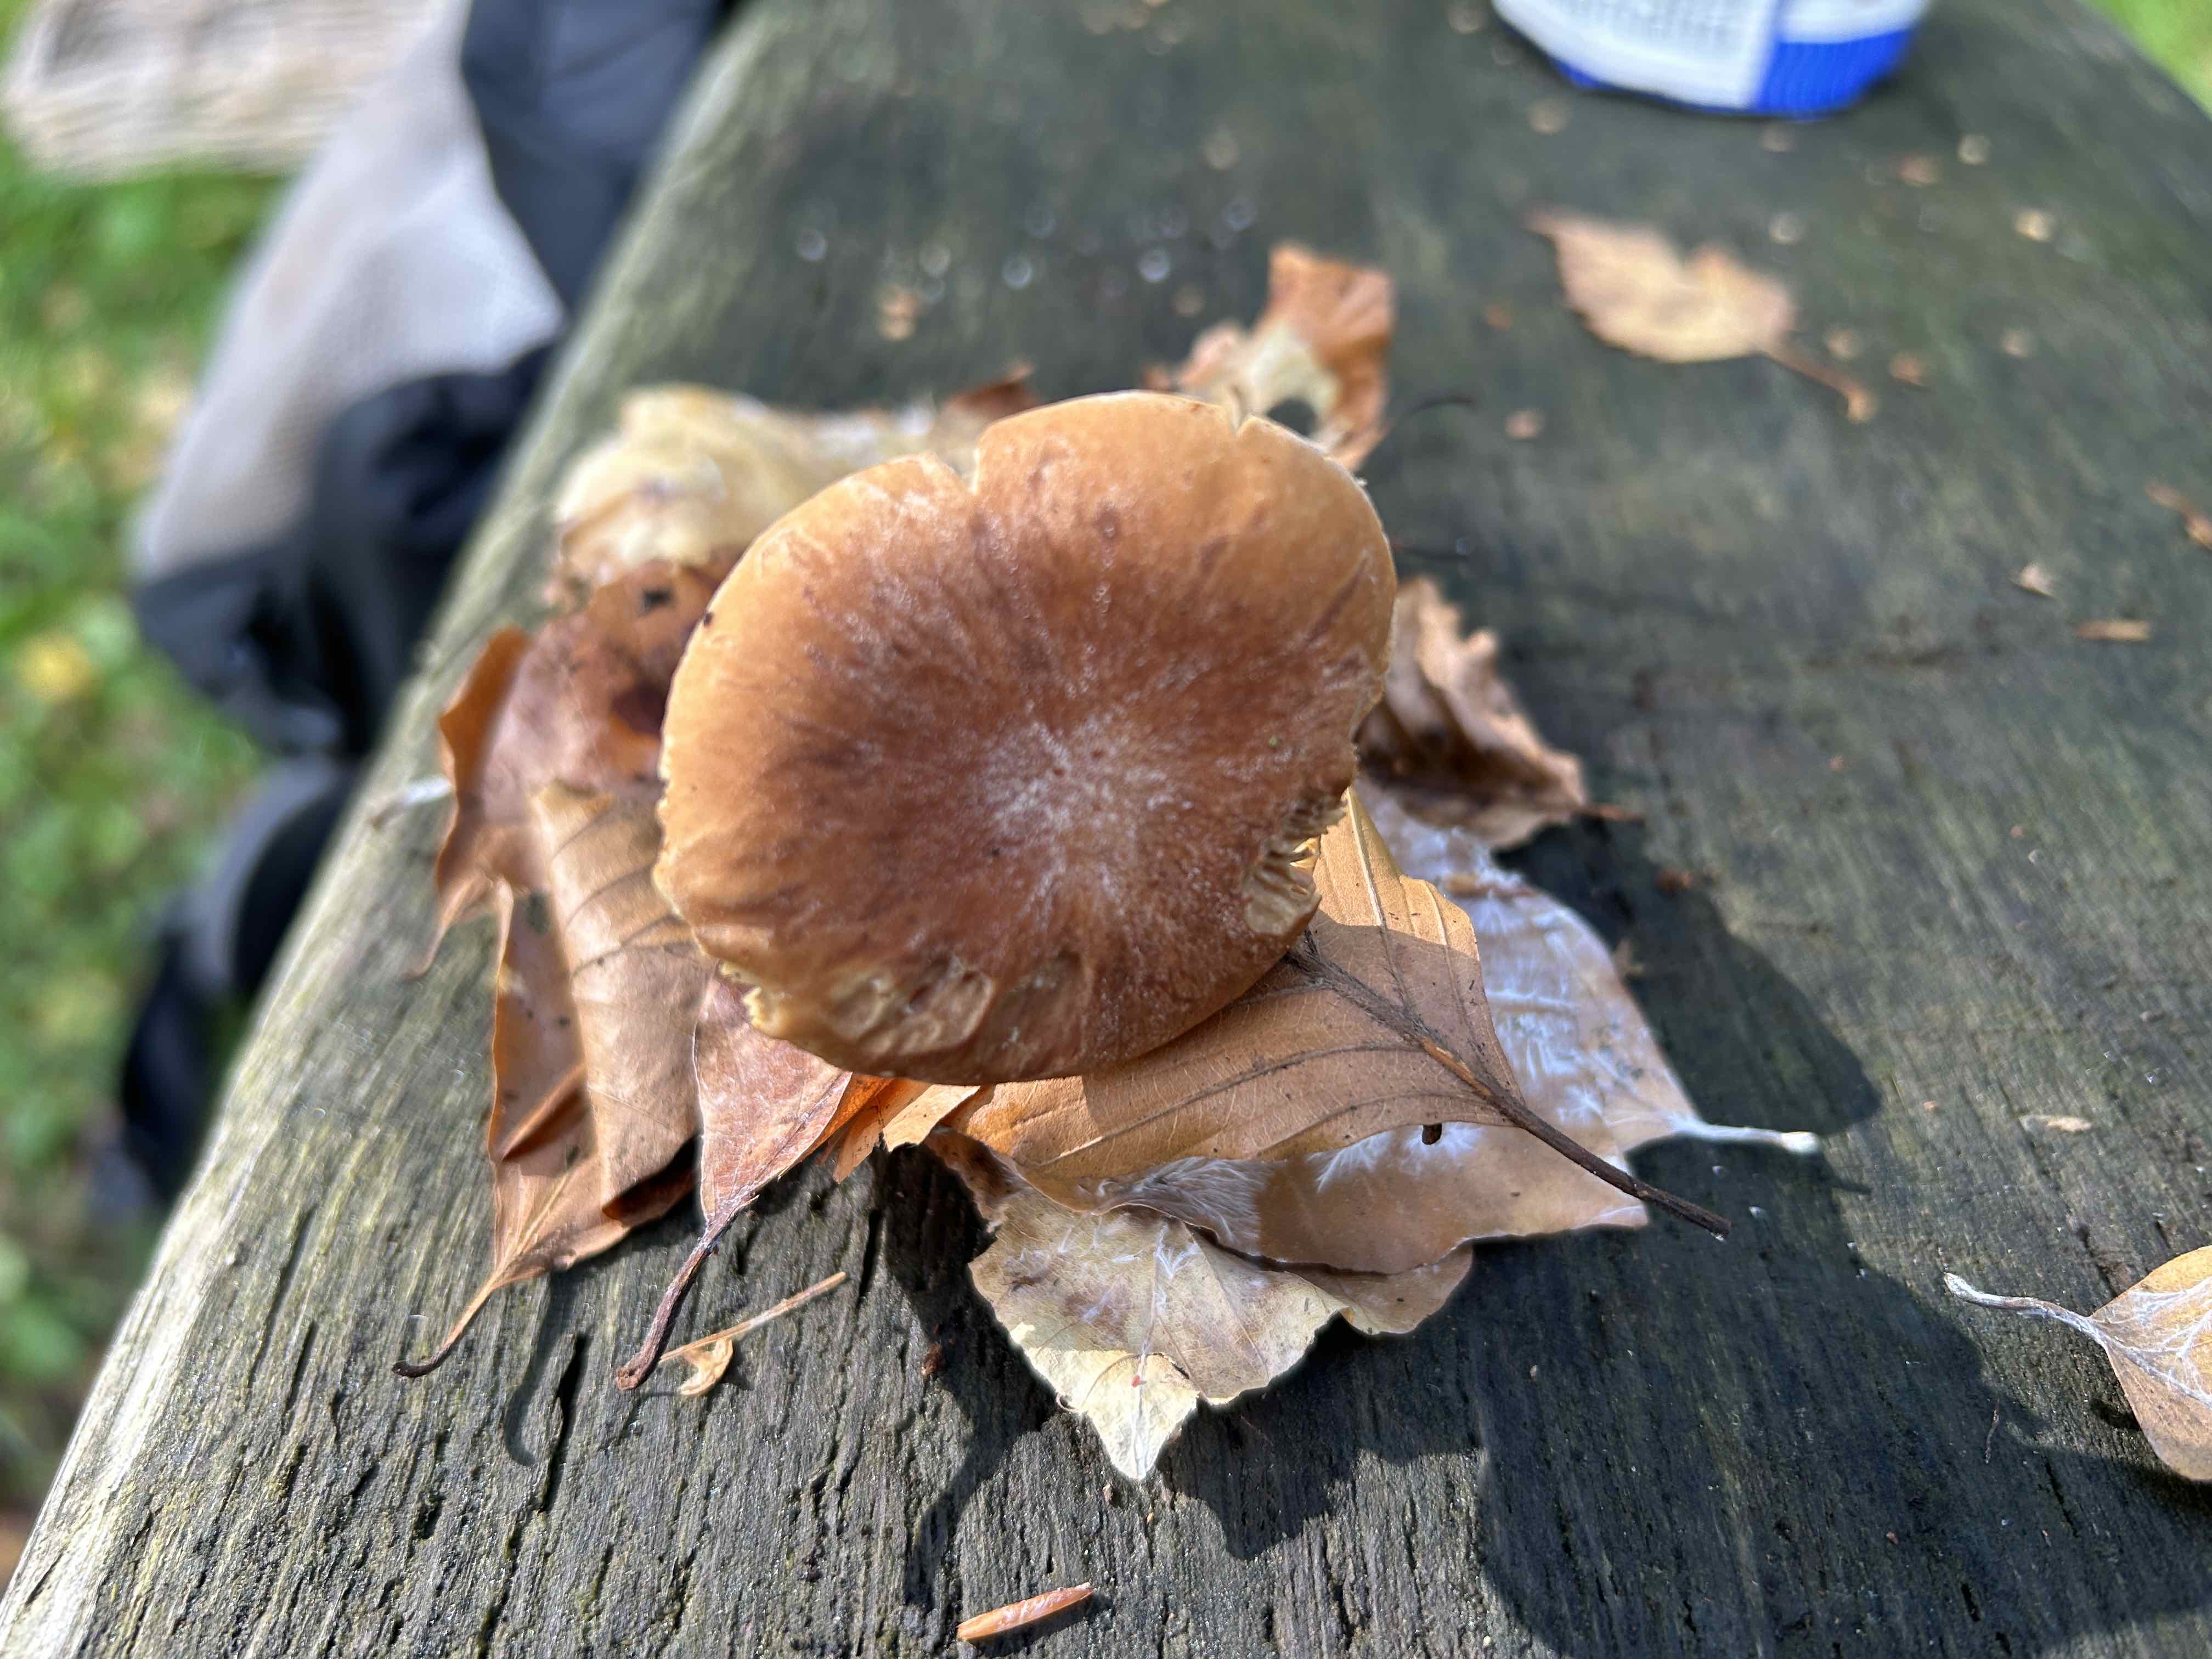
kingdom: Fungi
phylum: Basidiomycota
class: Agaricomycetes
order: Agaricales
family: Omphalotaceae
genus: Collybiopsis
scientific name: Collybiopsis peronata
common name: bestøvlet fladhat
